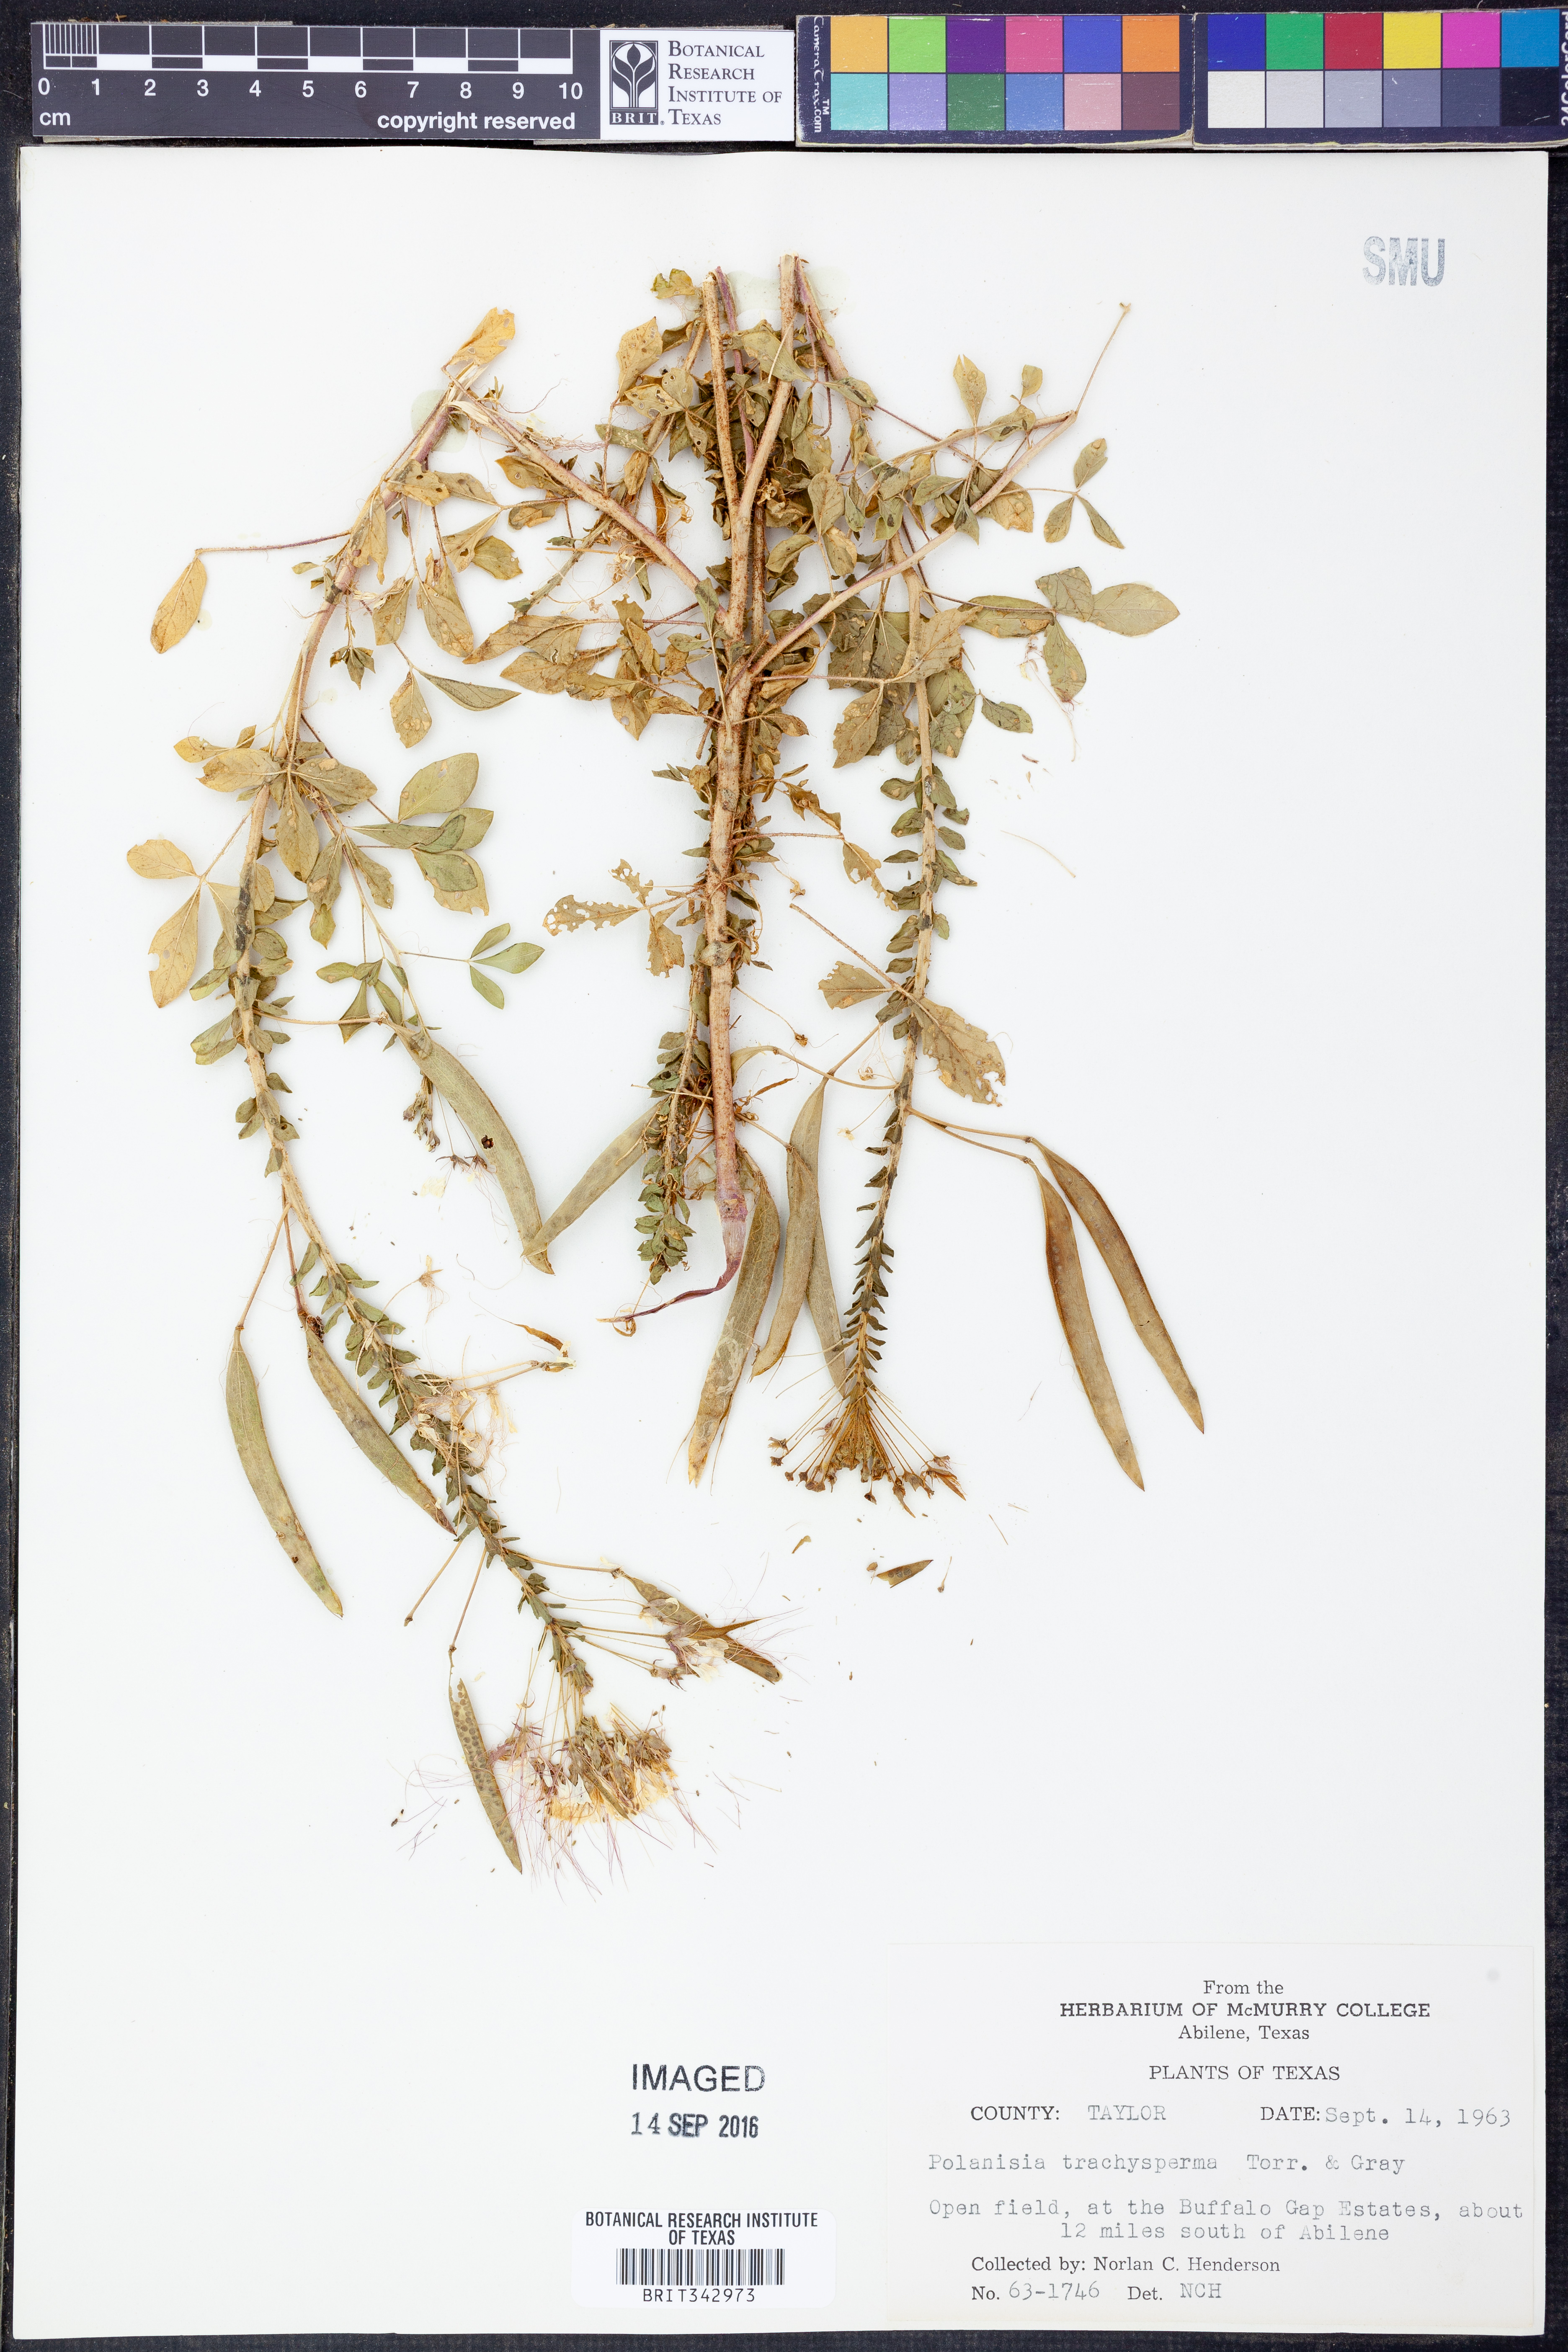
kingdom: Plantae
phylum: Tracheophyta
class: Magnoliopsida
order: Brassicales
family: Cleomaceae
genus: Polanisia
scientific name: Polanisia trachysperma
